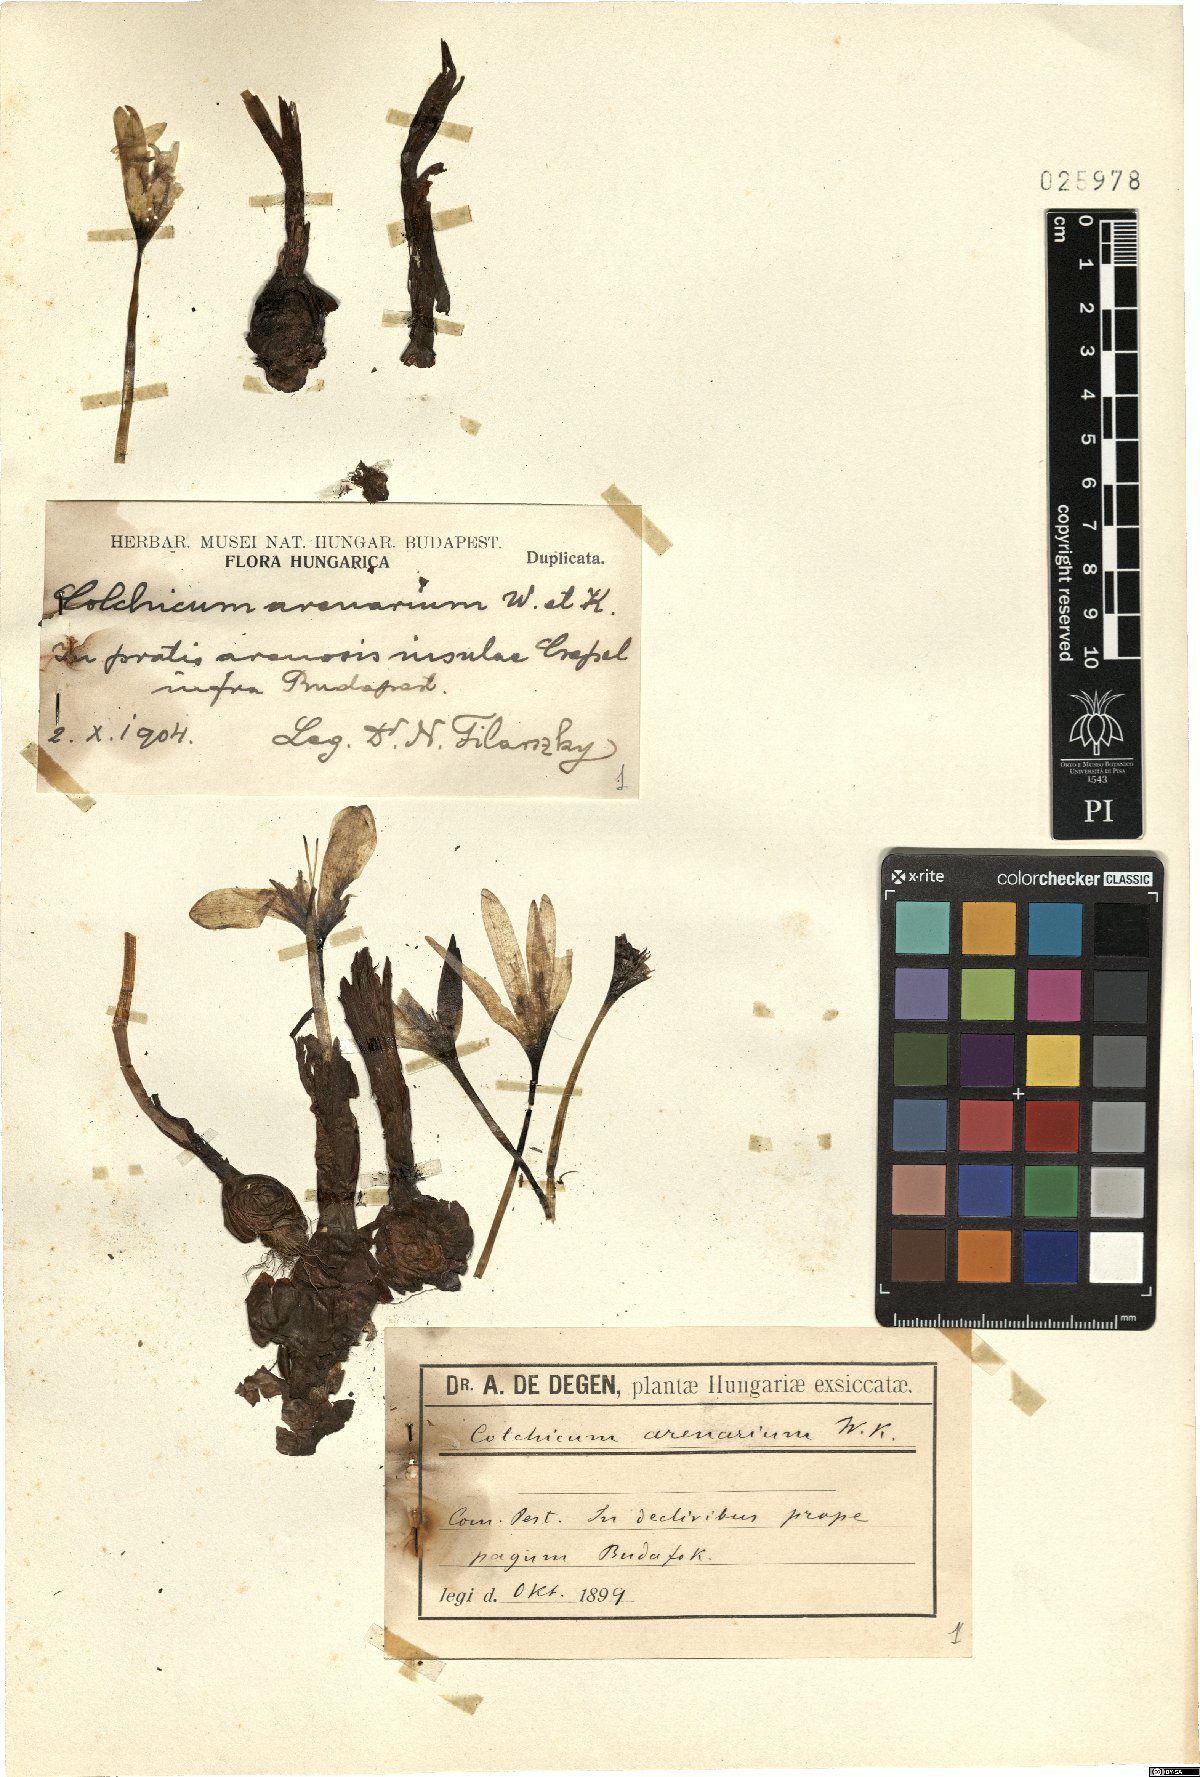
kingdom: Plantae
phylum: Tracheophyta
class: Liliopsida
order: Liliales
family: Colchicaceae
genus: Colchicum
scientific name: Colchicum arenarium
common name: Sand saffron
